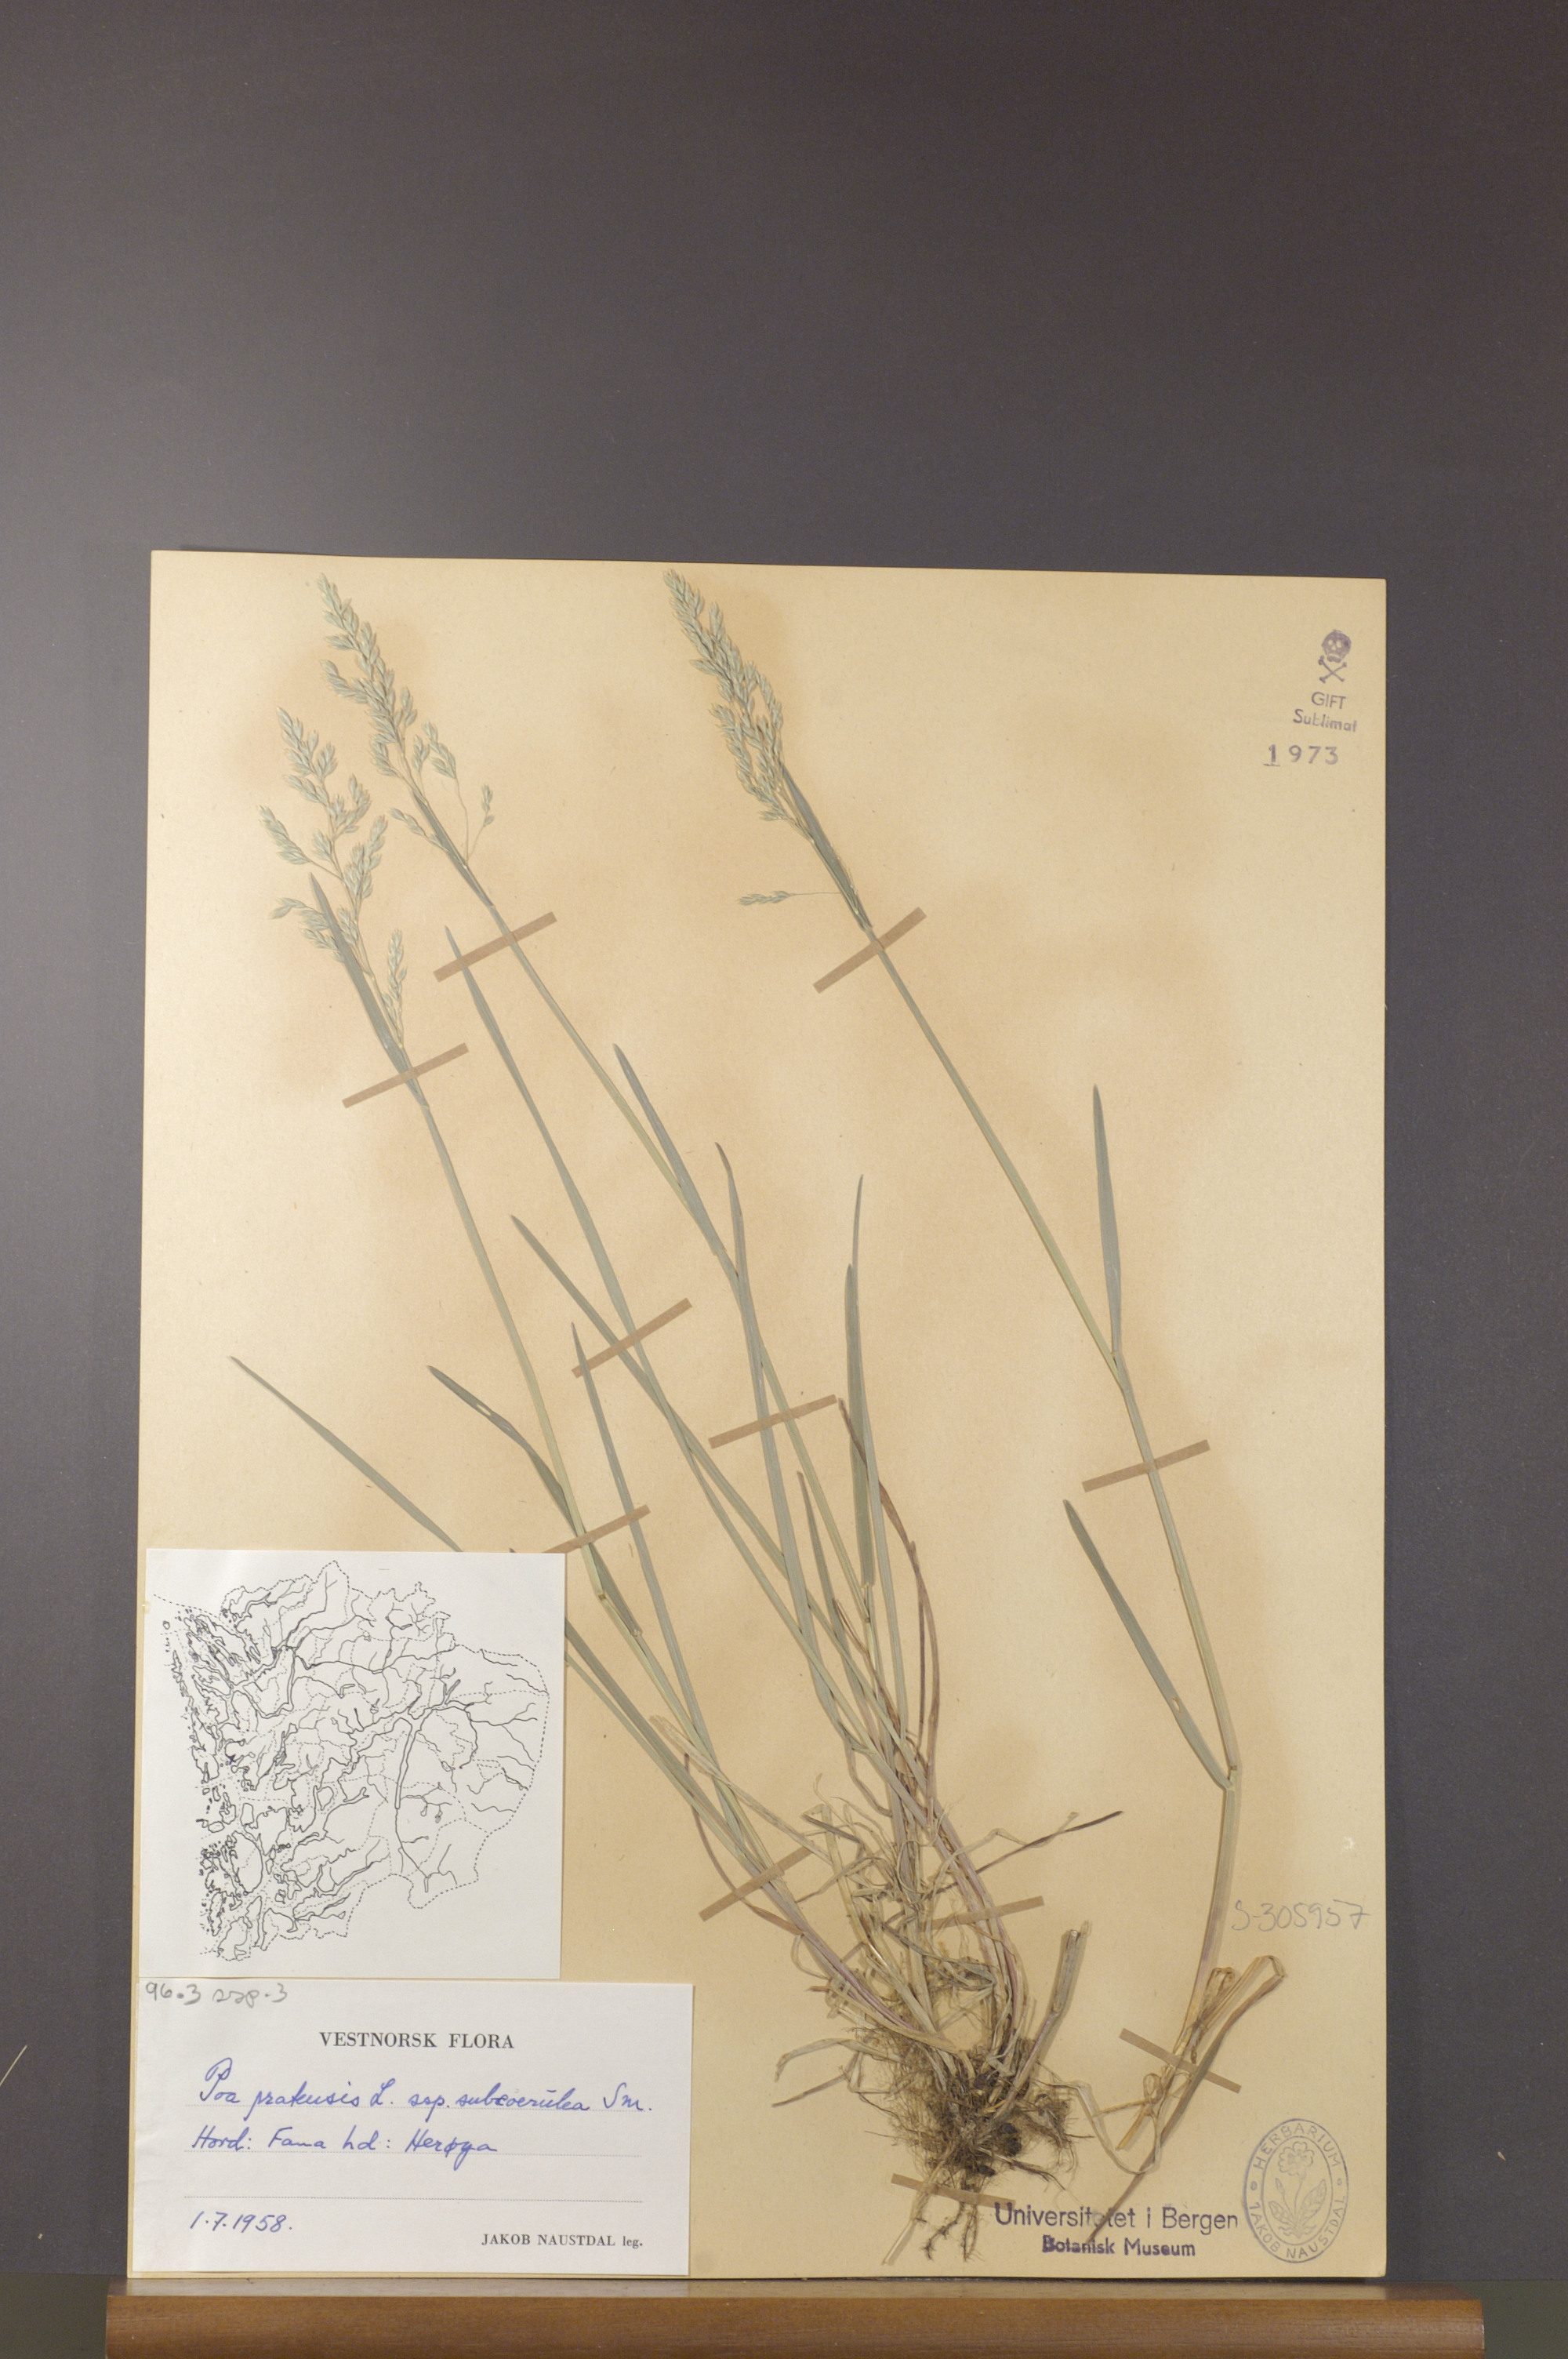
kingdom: Plantae
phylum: Tracheophyta
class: Liliopsida
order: Poales
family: Poaceae
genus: Poa
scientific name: Poa humilis
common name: Spreading meadow-grass
